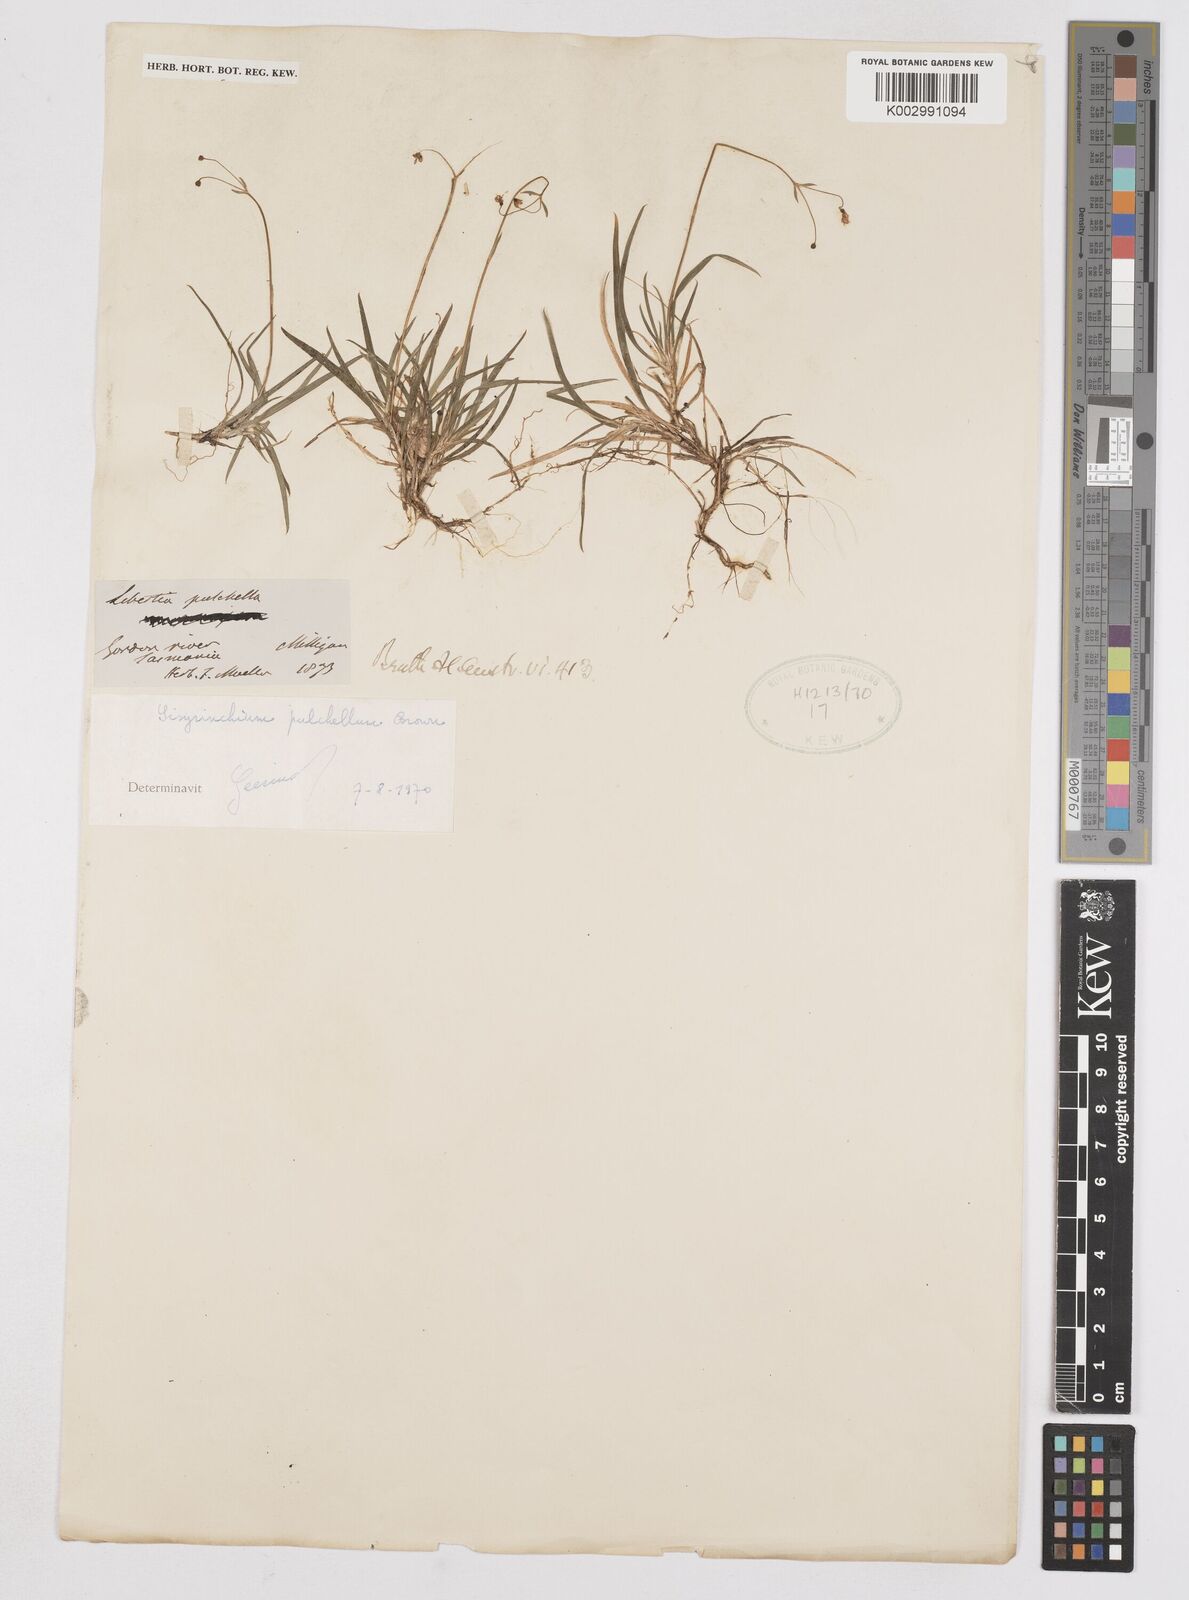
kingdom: Plantae
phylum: Tracheophyta
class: Liliopsida
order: Asparagales
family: Iridaceae
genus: Libertia
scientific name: Libertia pulchella
